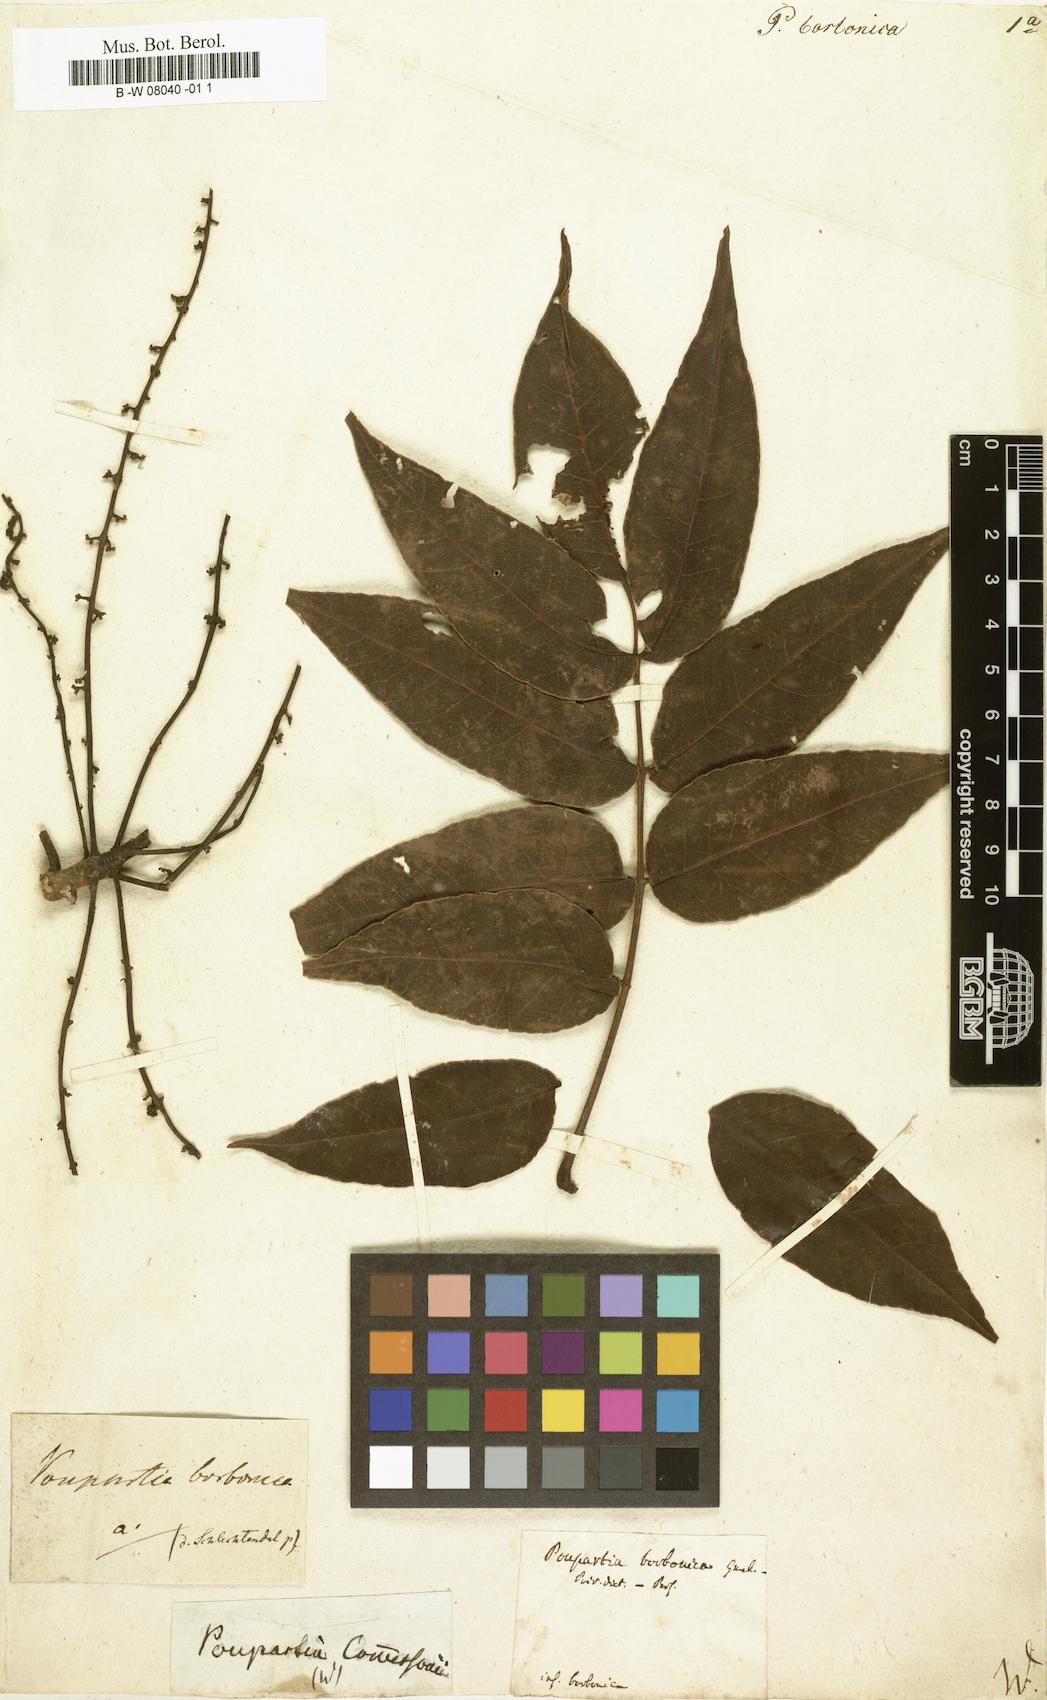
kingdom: Plantae
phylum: Tracheophyta
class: Magnoliopsida
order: Sapindales
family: Anacardiaceae
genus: Poupartia
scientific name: Poupartia borbonica
